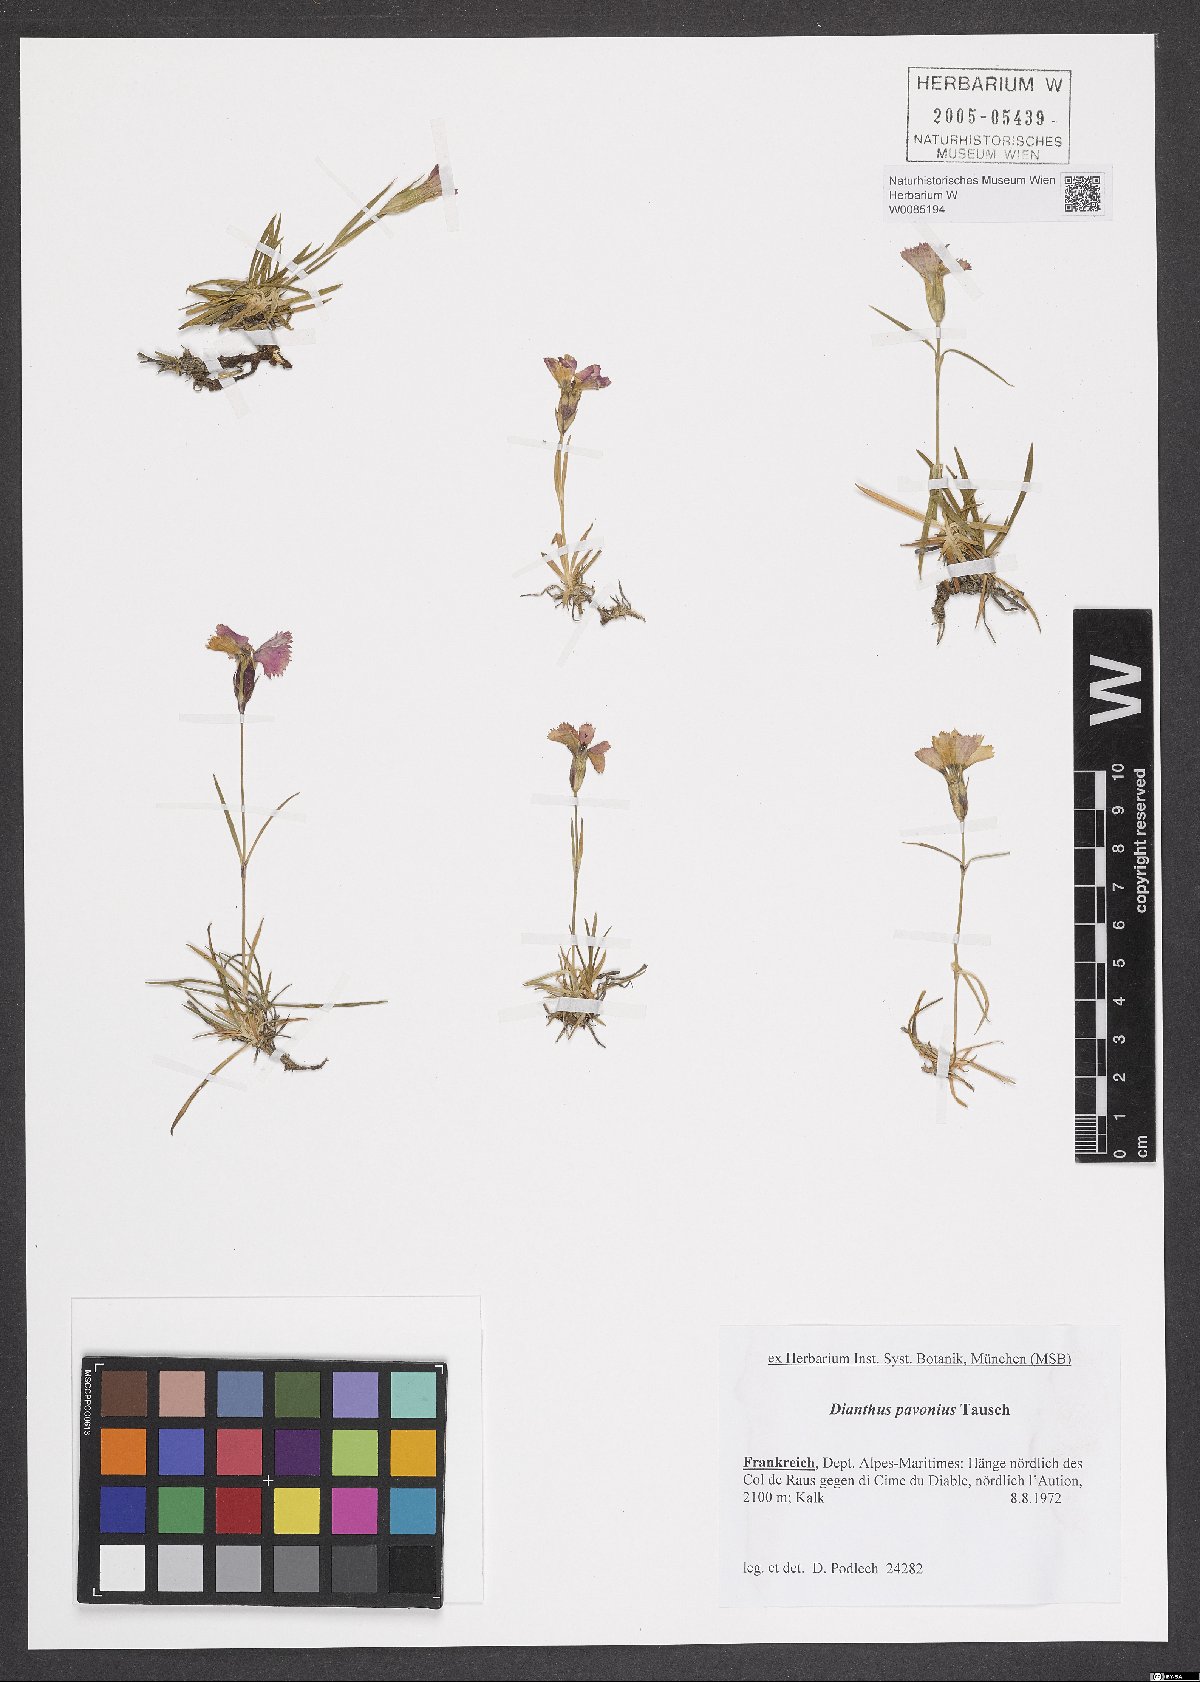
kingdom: Plantae
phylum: Tracheophyta
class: Magnoliopsida
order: Caryophyllales
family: Caryophyllaceae
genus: Dianthus
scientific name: Dianthus pavonius
